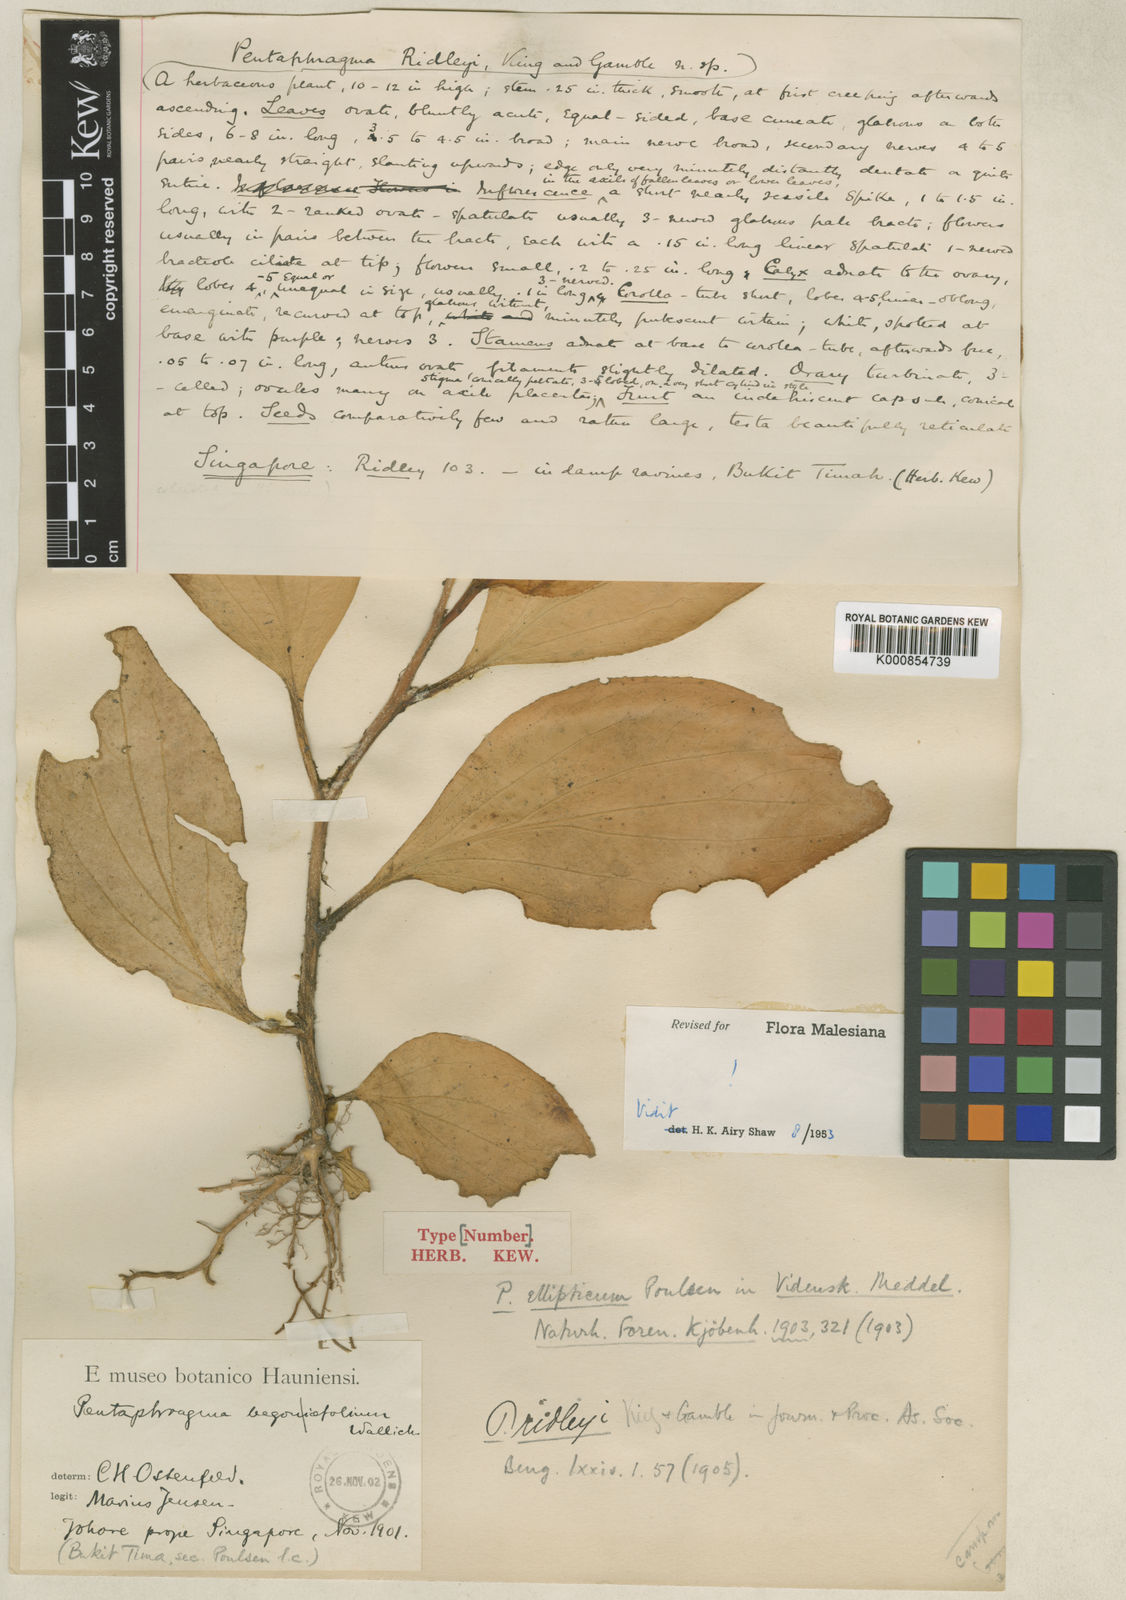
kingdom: Plantae
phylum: Tracheophyta
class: Magnoliopsida
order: Asterales
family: Pentaphragmataceae
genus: Pentaphragma
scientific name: Pentaphragma ellipticum
